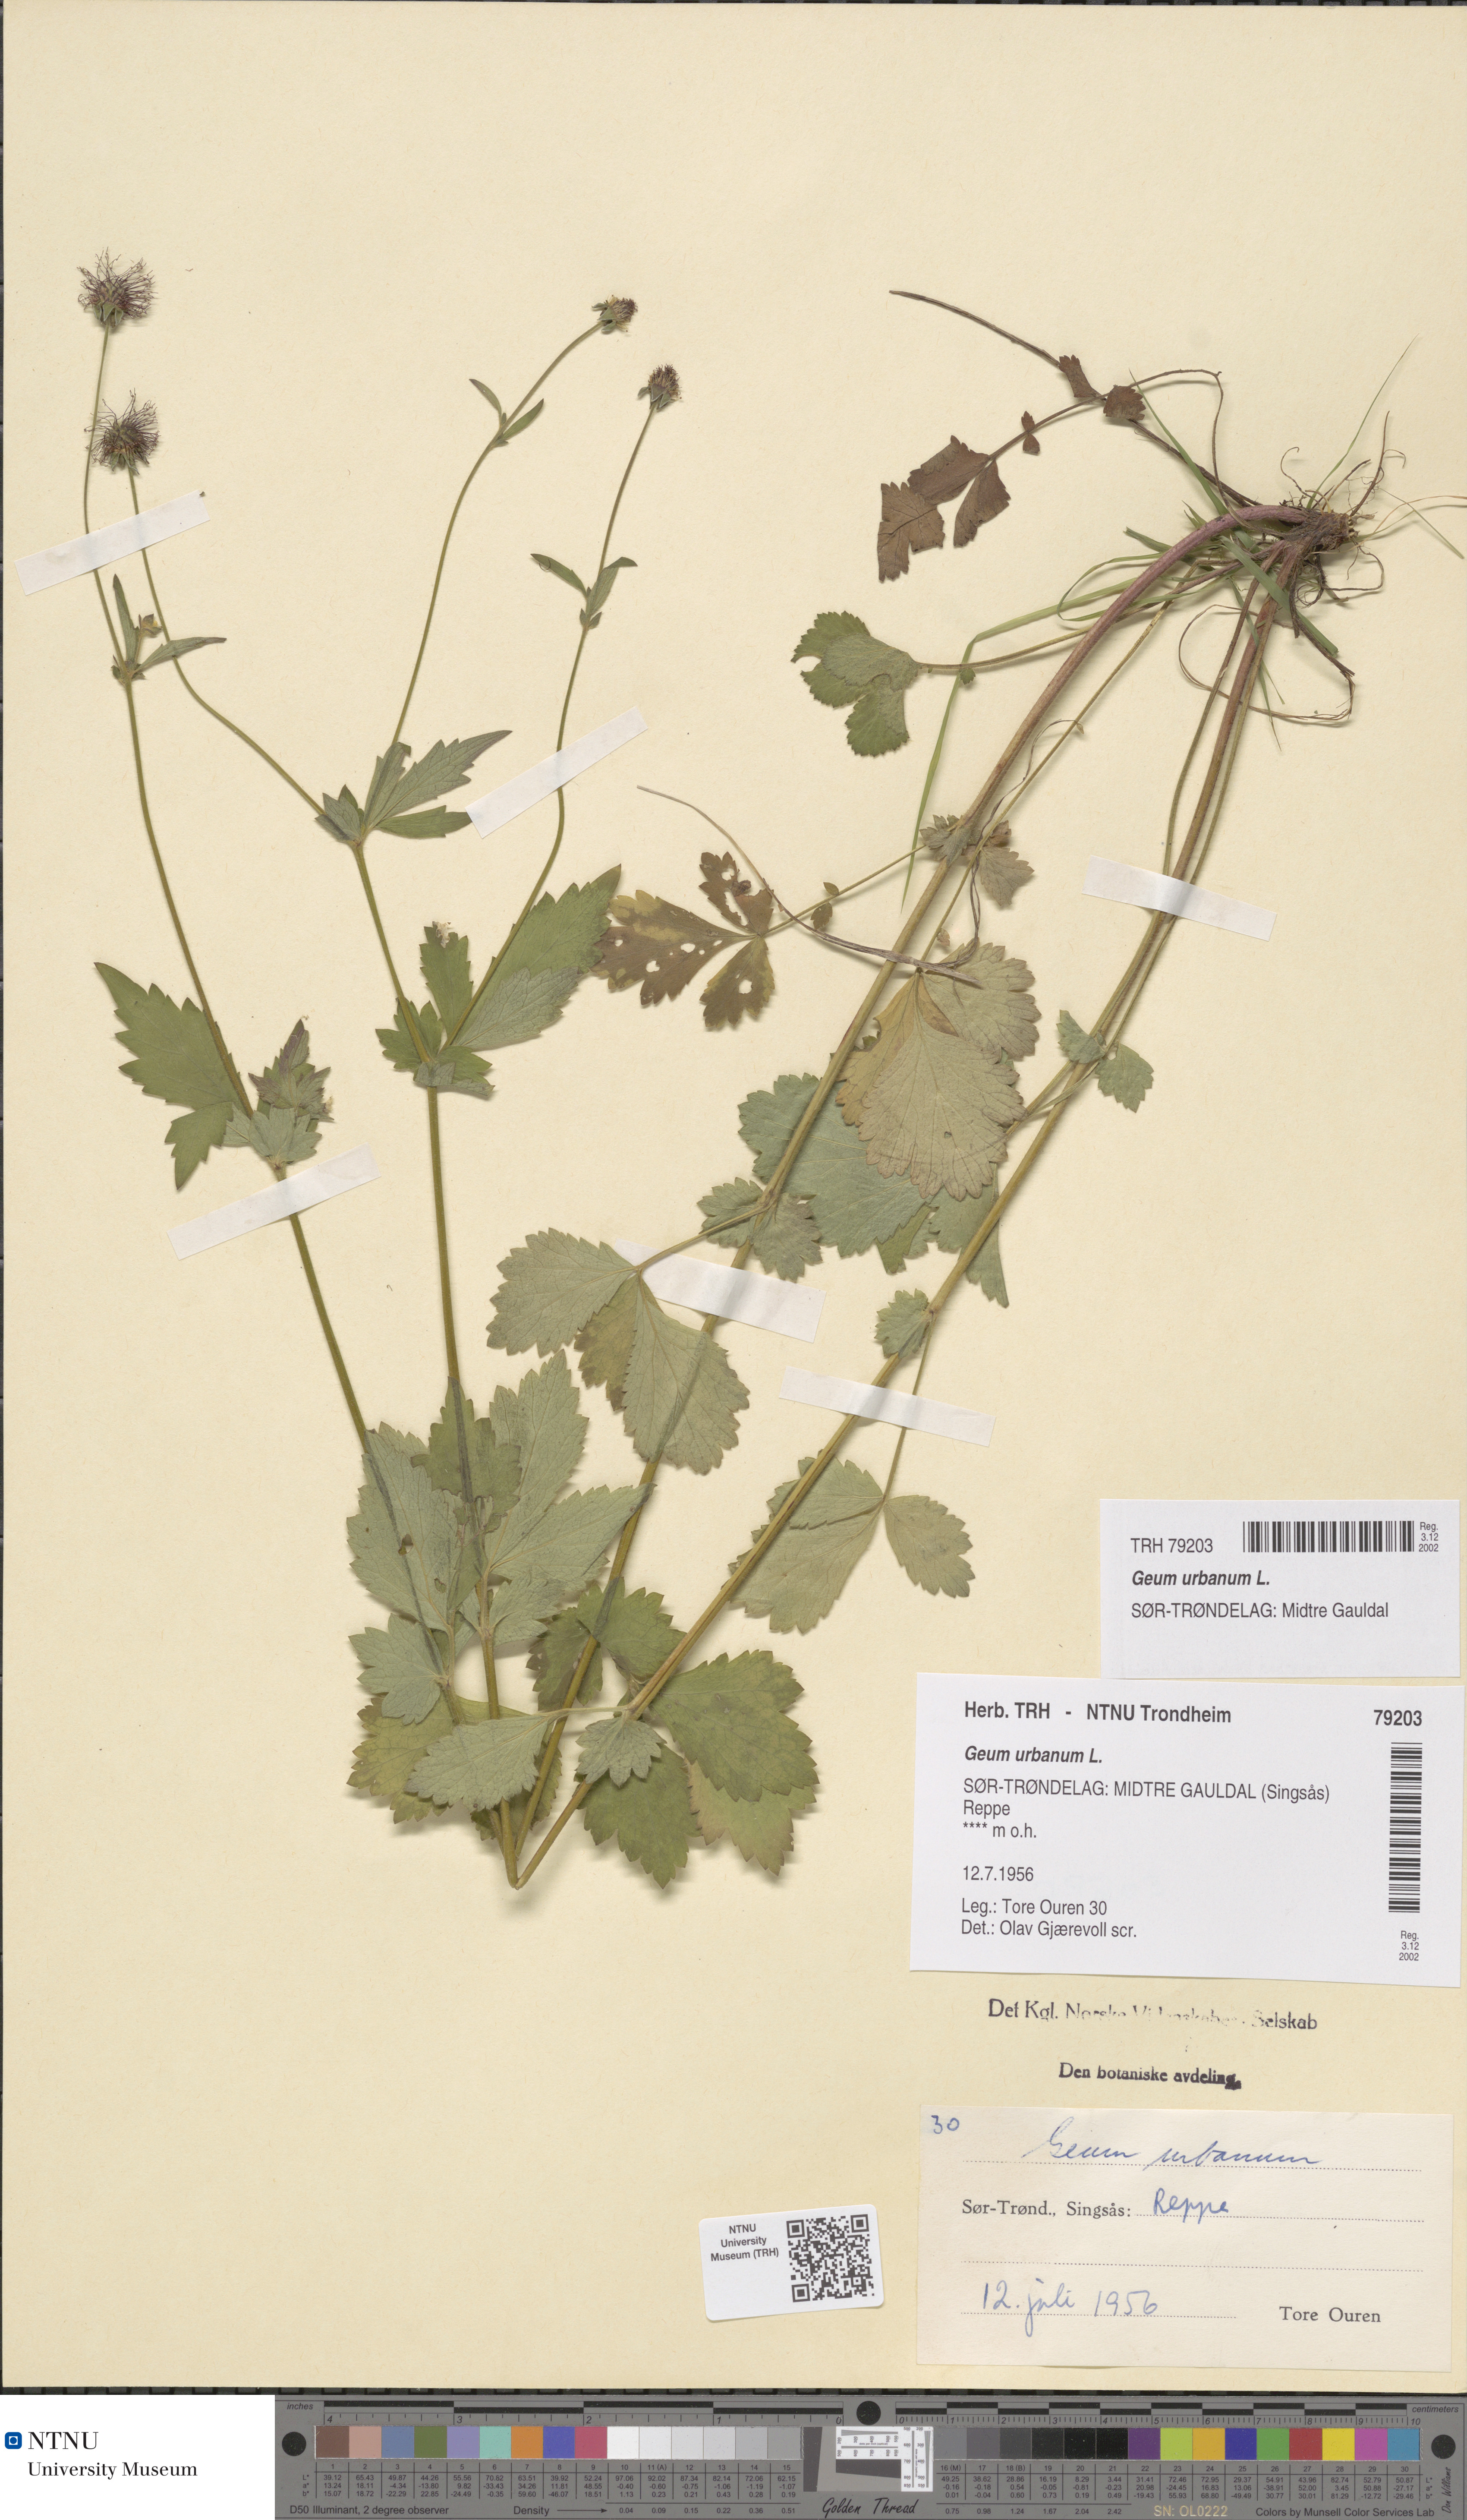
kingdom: Plantae
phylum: Tracheophyta
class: Magnoliopsida
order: Rosales
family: Rosaceae
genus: Geum
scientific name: Geum urbanum
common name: Wood avens
